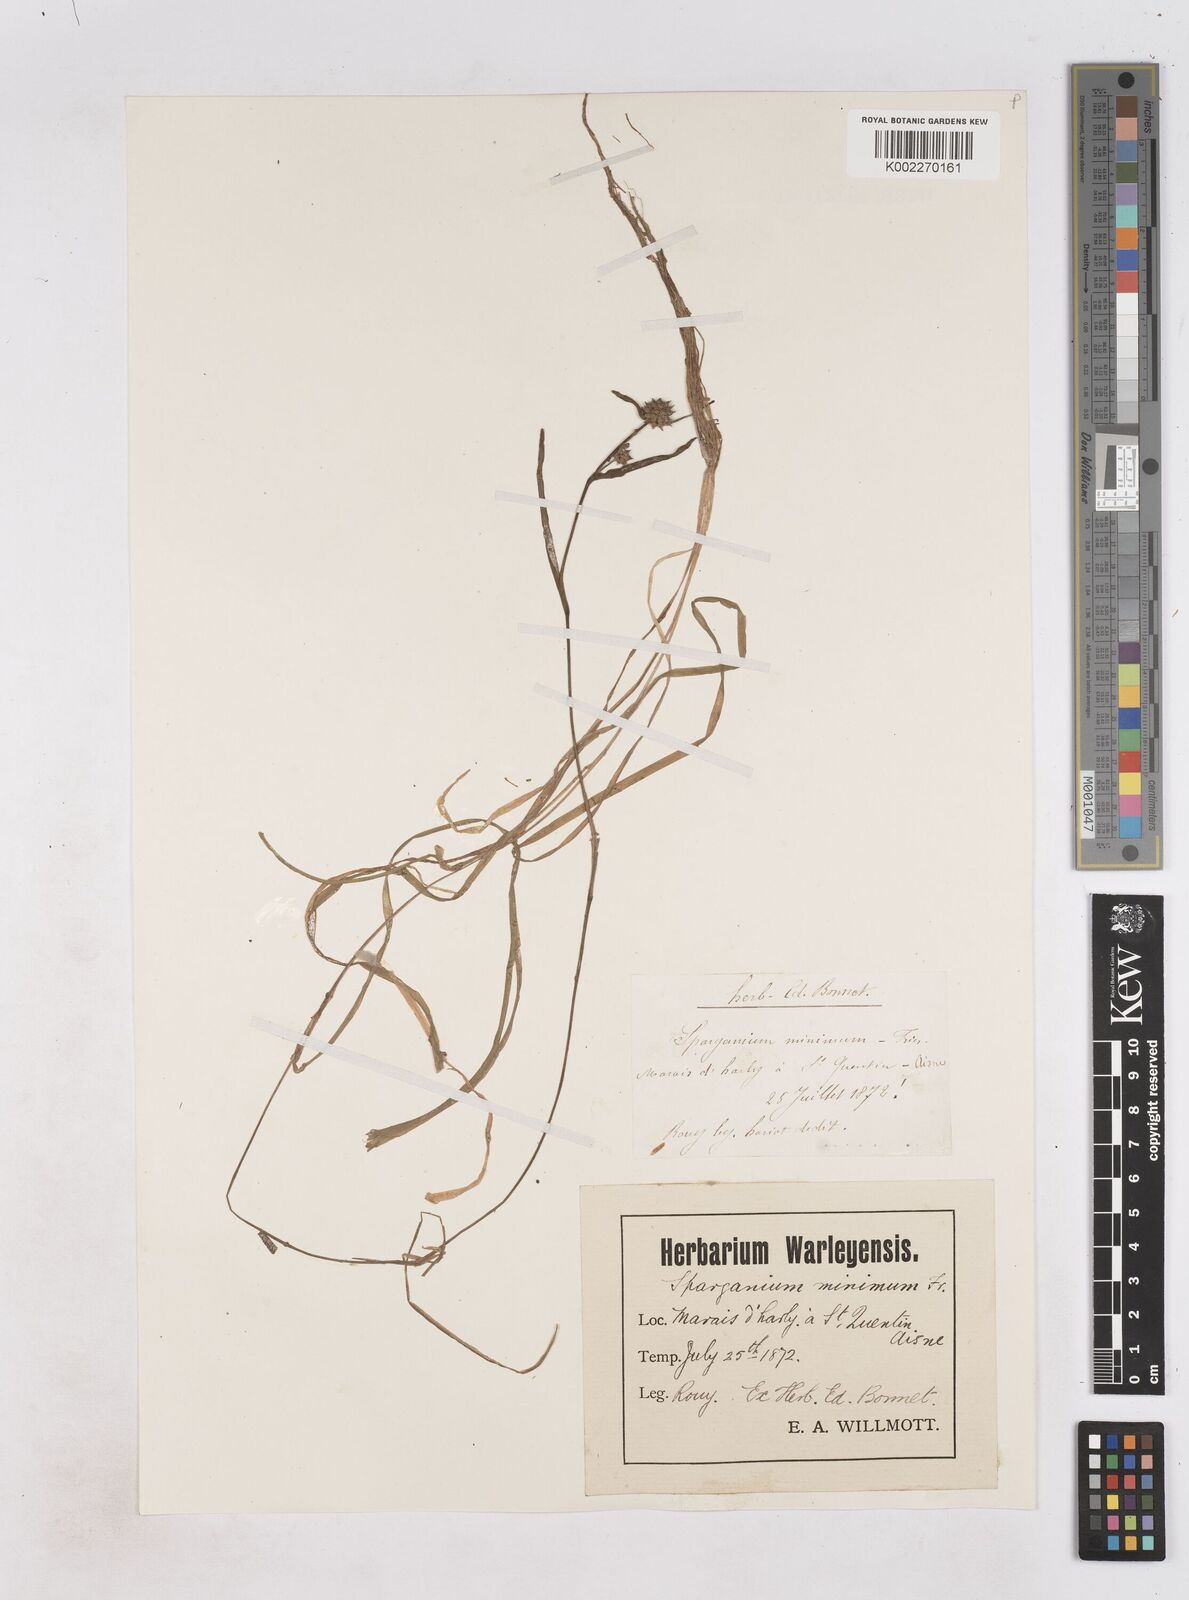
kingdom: Plantae
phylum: Tracheophyta
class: Liliopsida
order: Poales
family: Typhaceae
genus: Sparganium
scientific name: Sparganium natans
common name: Least bur-reed
